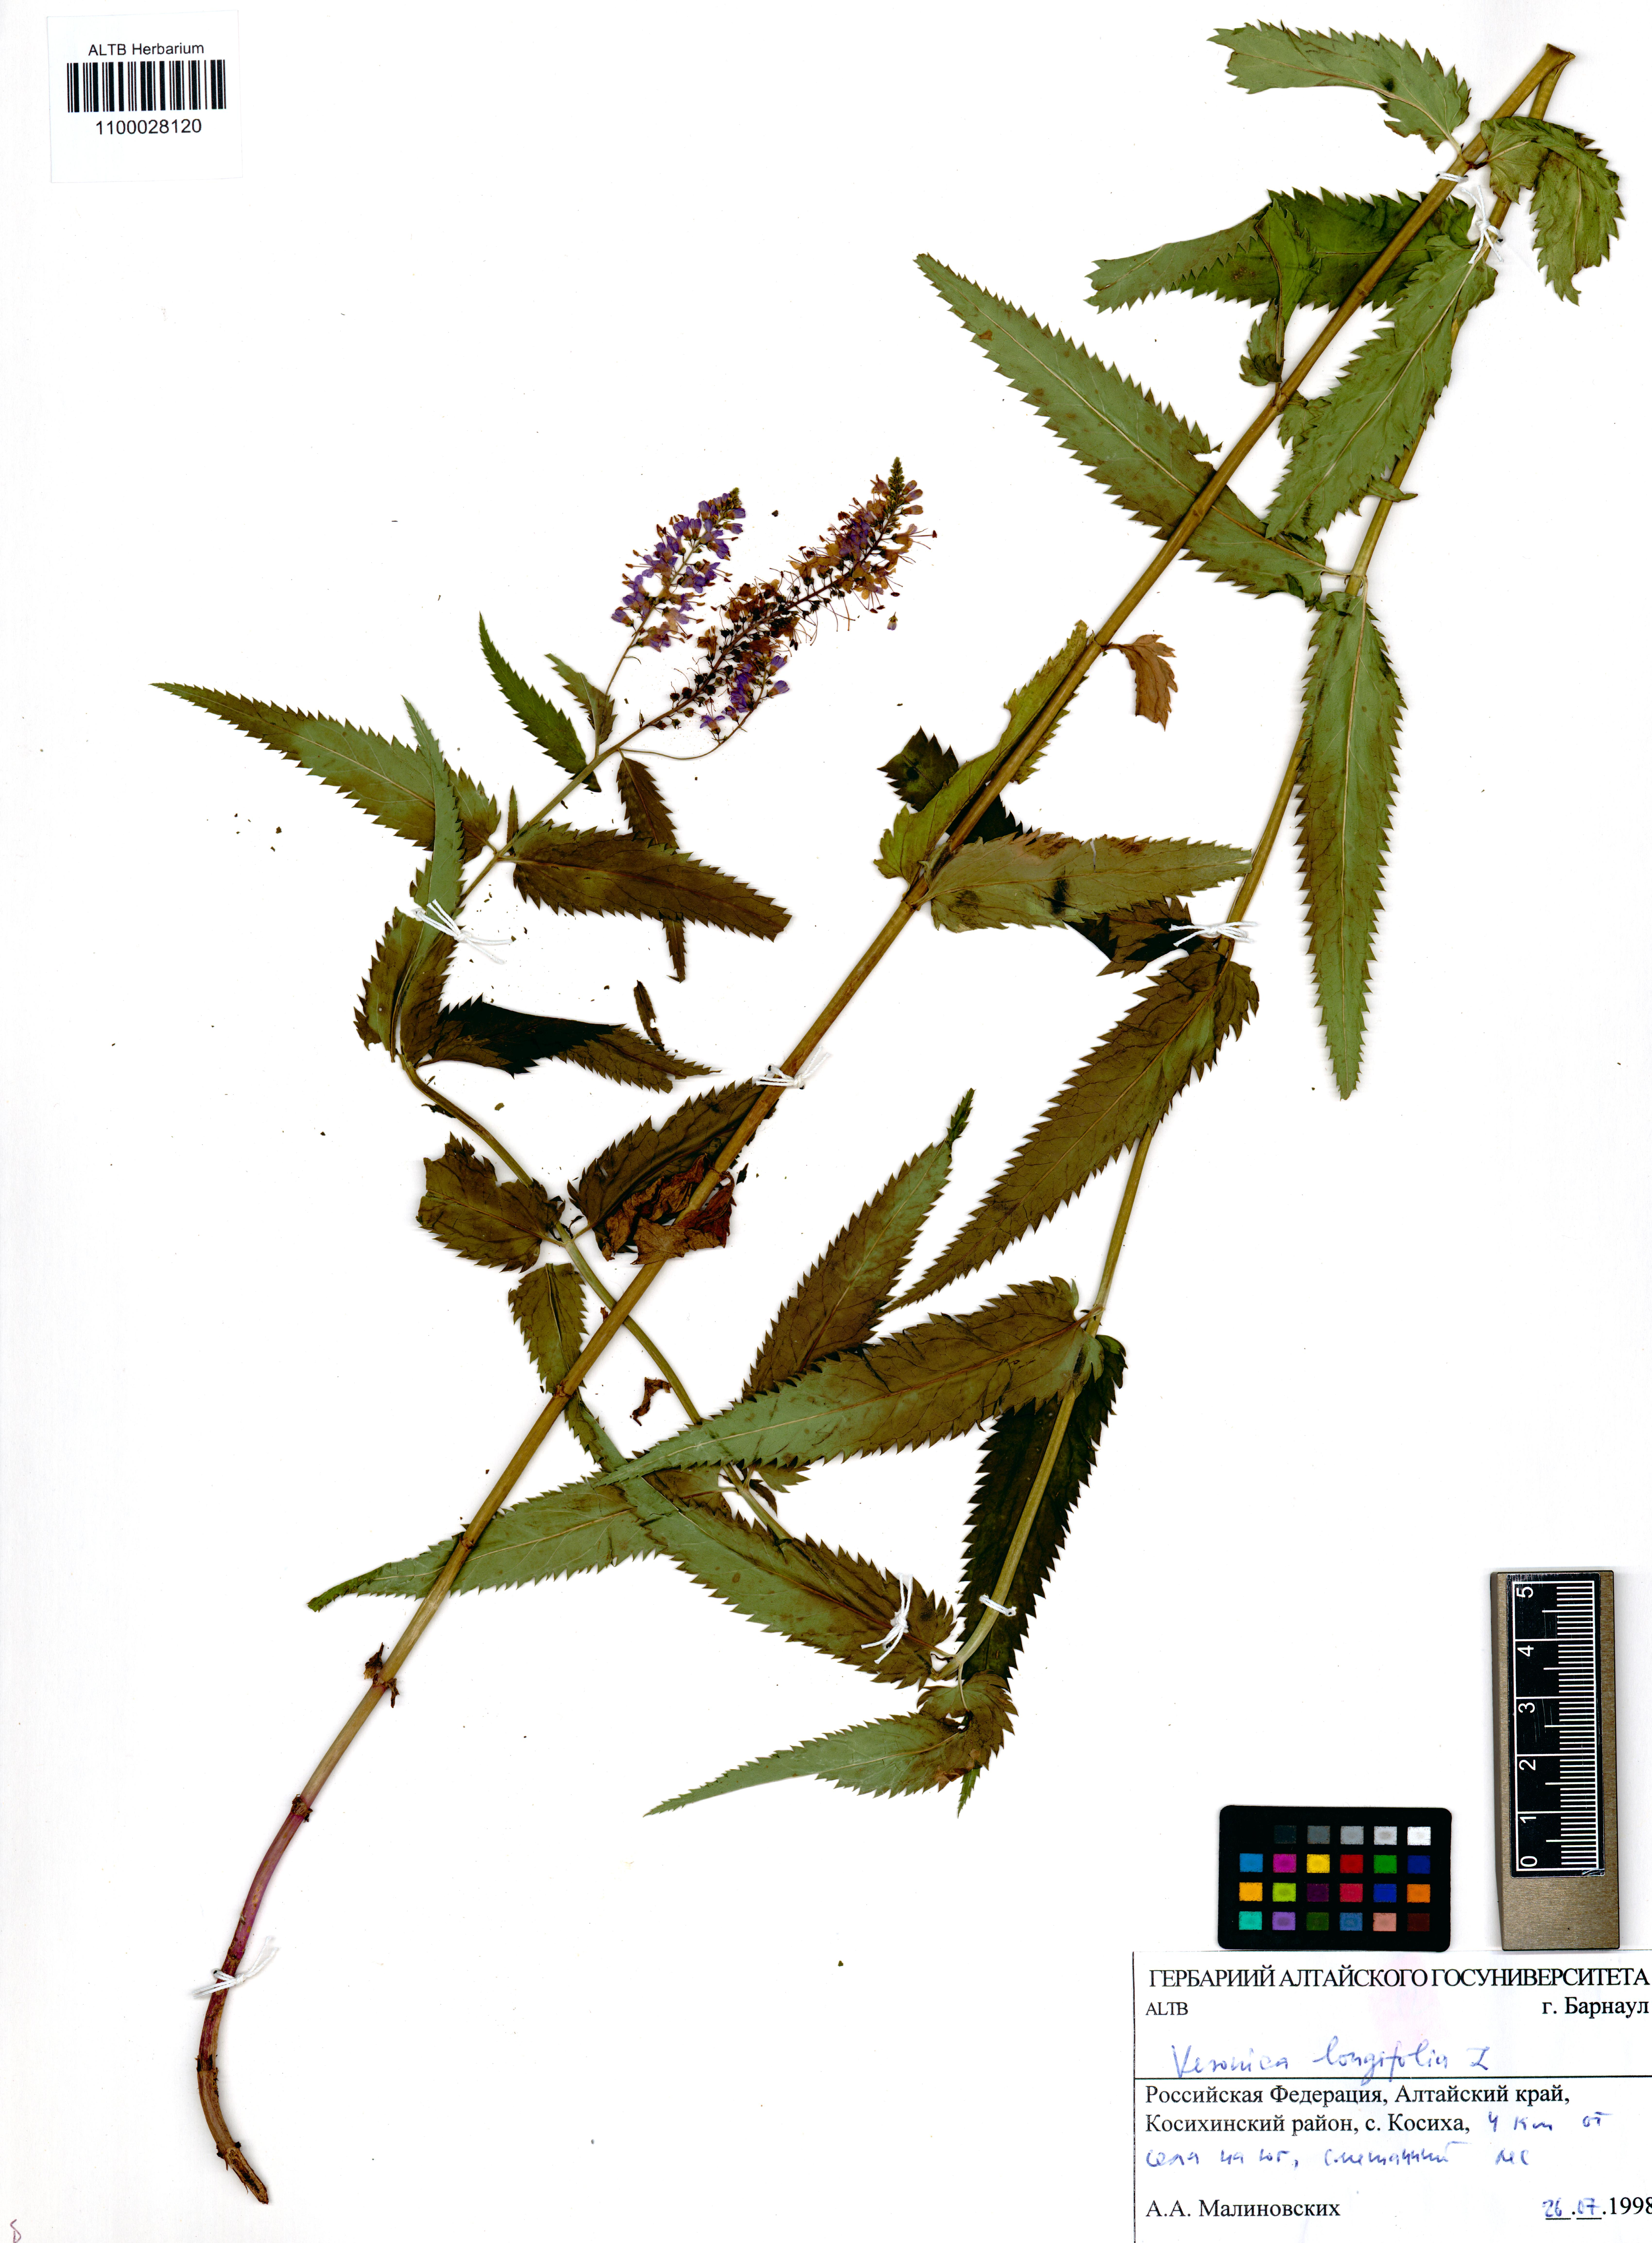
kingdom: Plantae
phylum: Tracheophyta
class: Magnoliopsida
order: Lamiales
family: Plantaginaceae
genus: Veronica
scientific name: Veronica longifolia
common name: Garden speedwell
